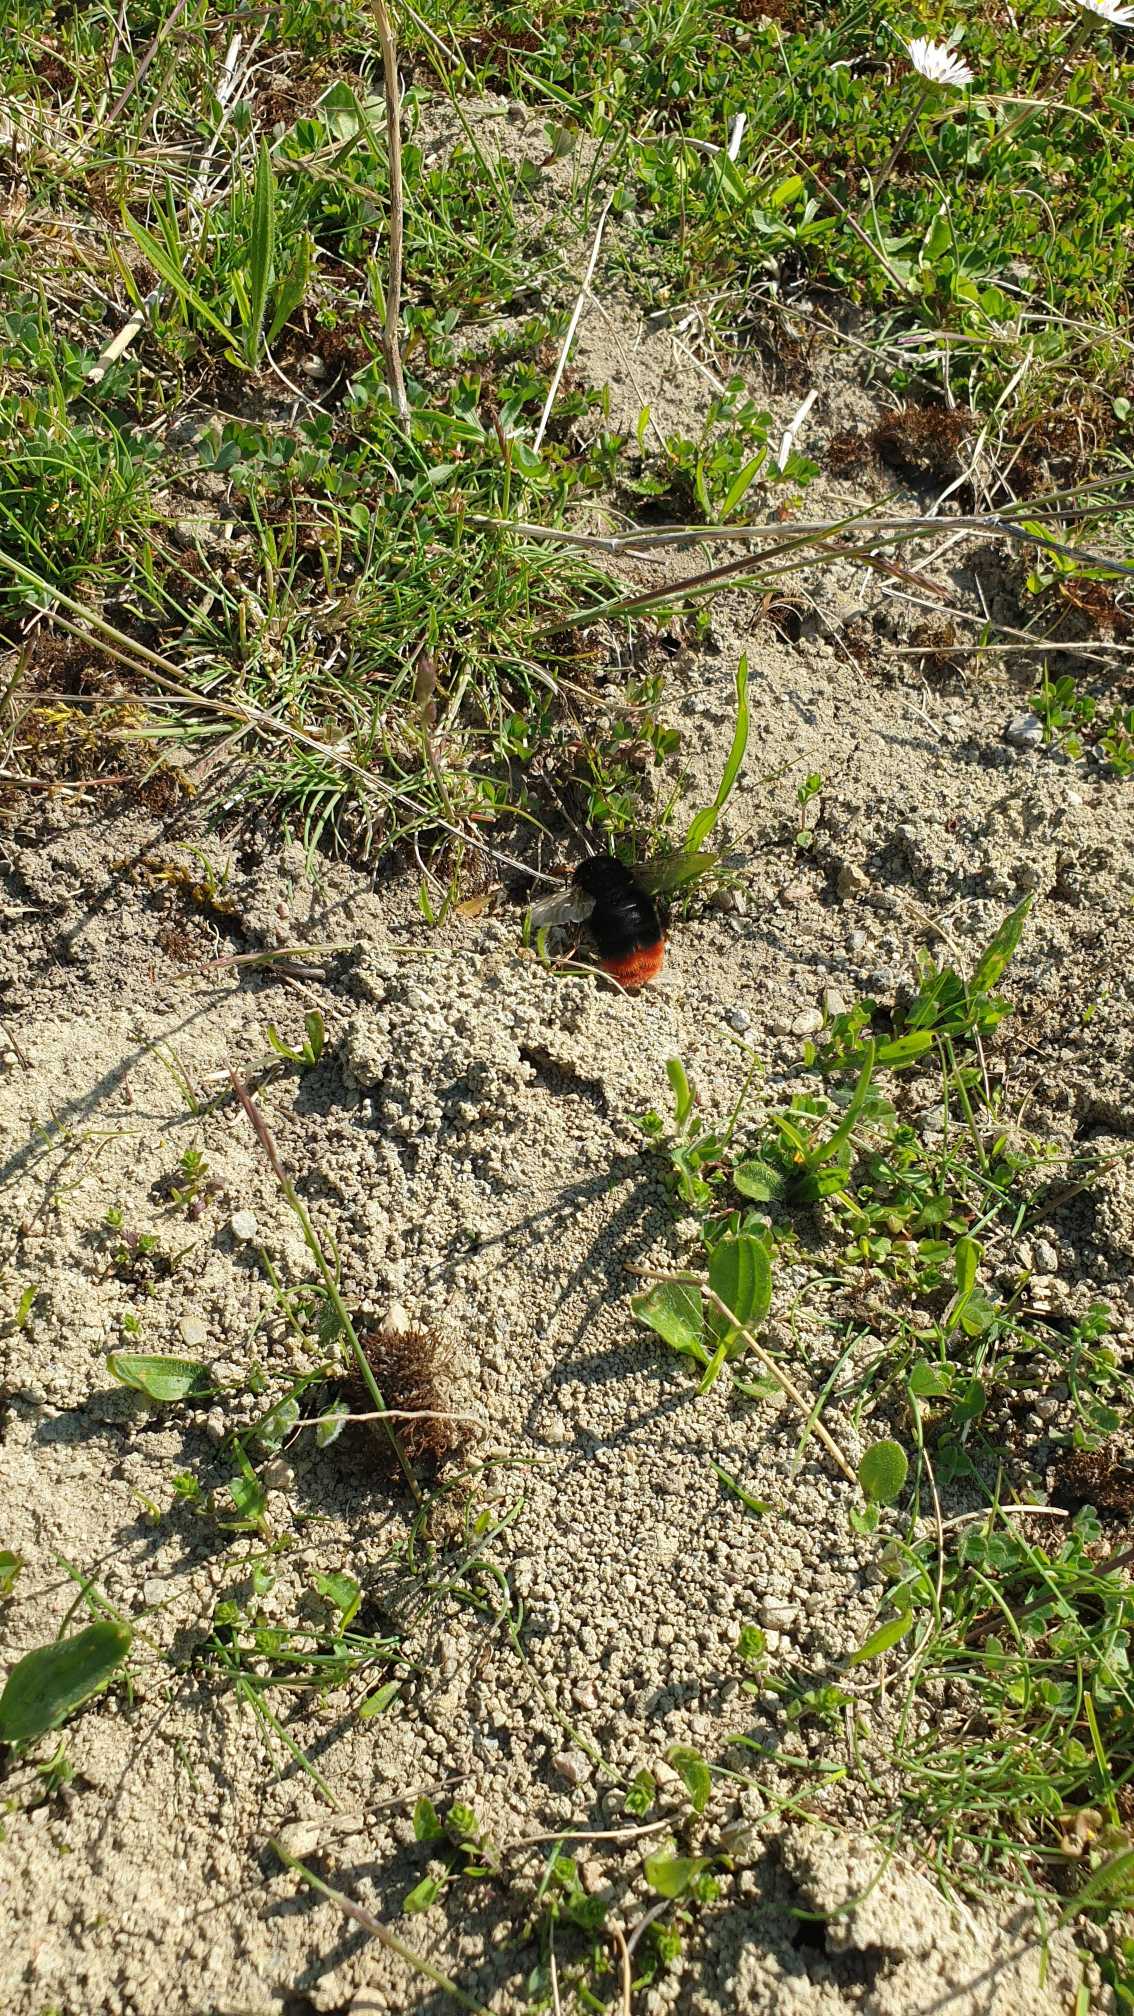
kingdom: Animalia
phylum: Arthropoda
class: Insecta
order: Hymenoptera
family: Apidae
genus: Bombus
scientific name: Bombus lapidarius
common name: Stenhumle
